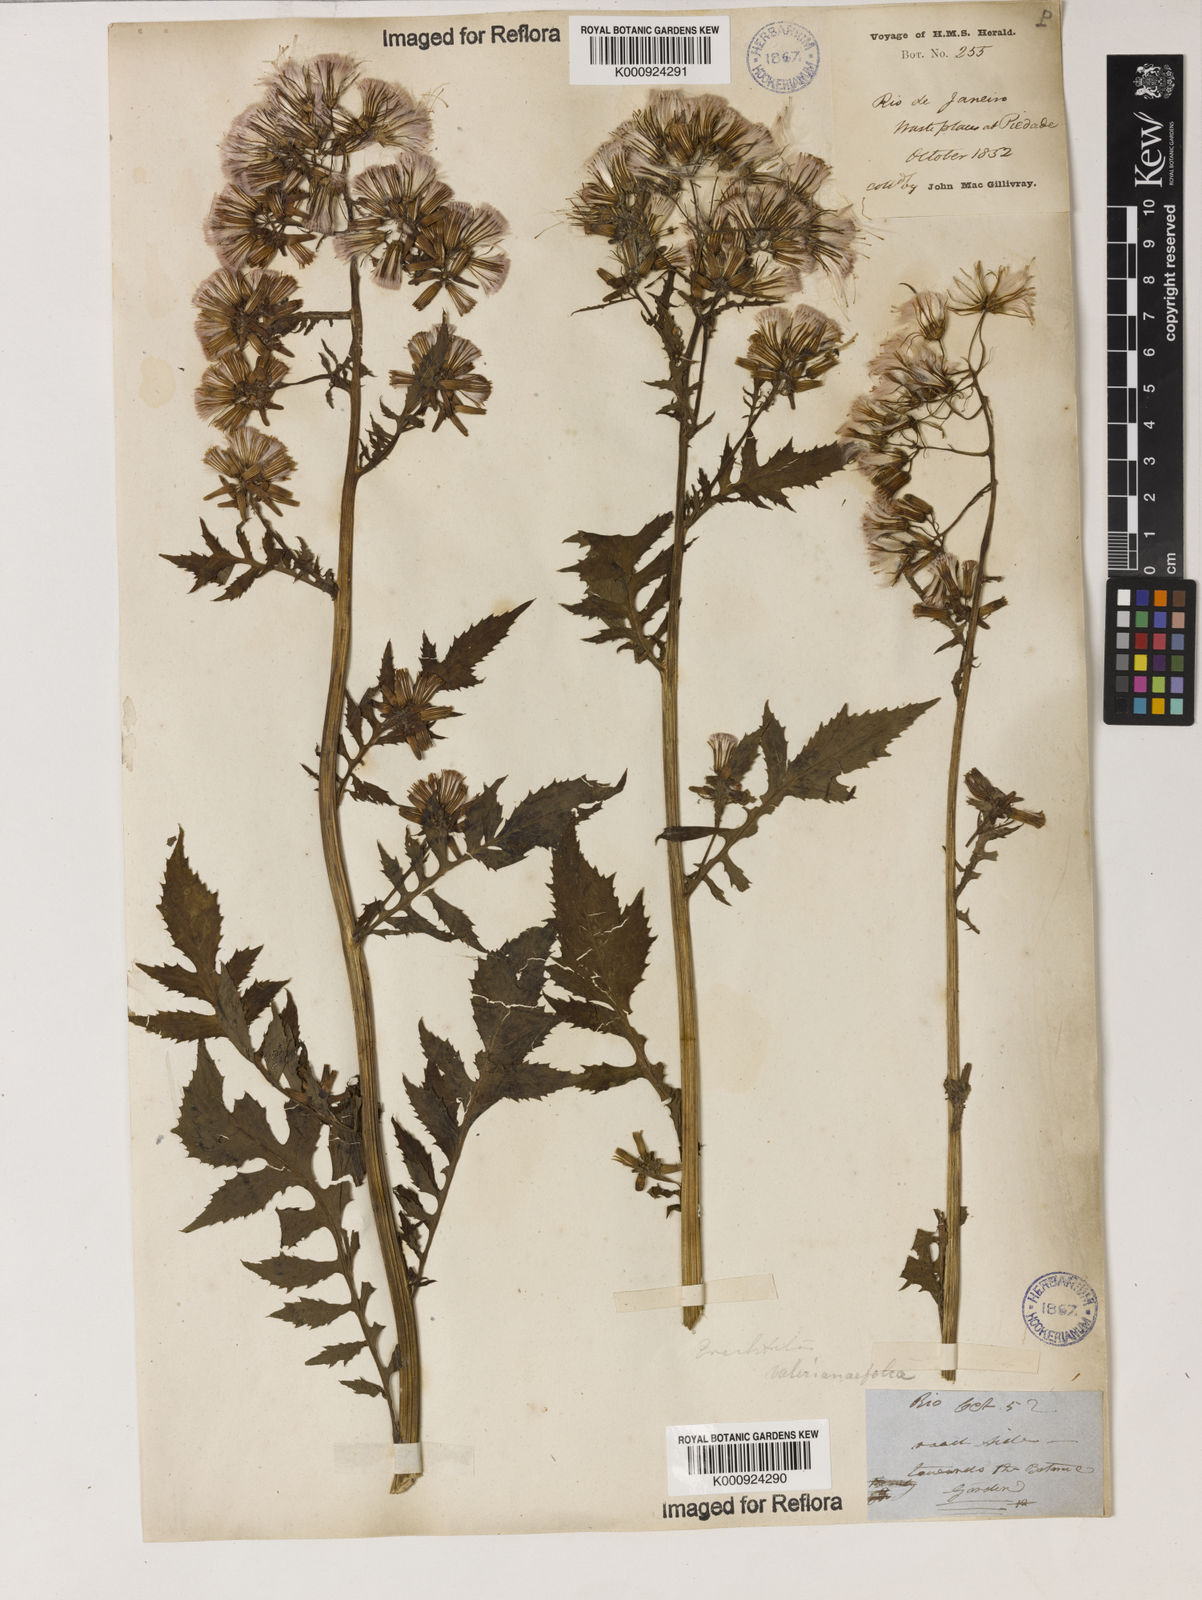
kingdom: Plantae
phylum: Tracheophyta
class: Magnoliopsida
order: Asterales
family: Asteraceae
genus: Erechtites
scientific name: Erechtites valerianifolius
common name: Tropical burnweed
